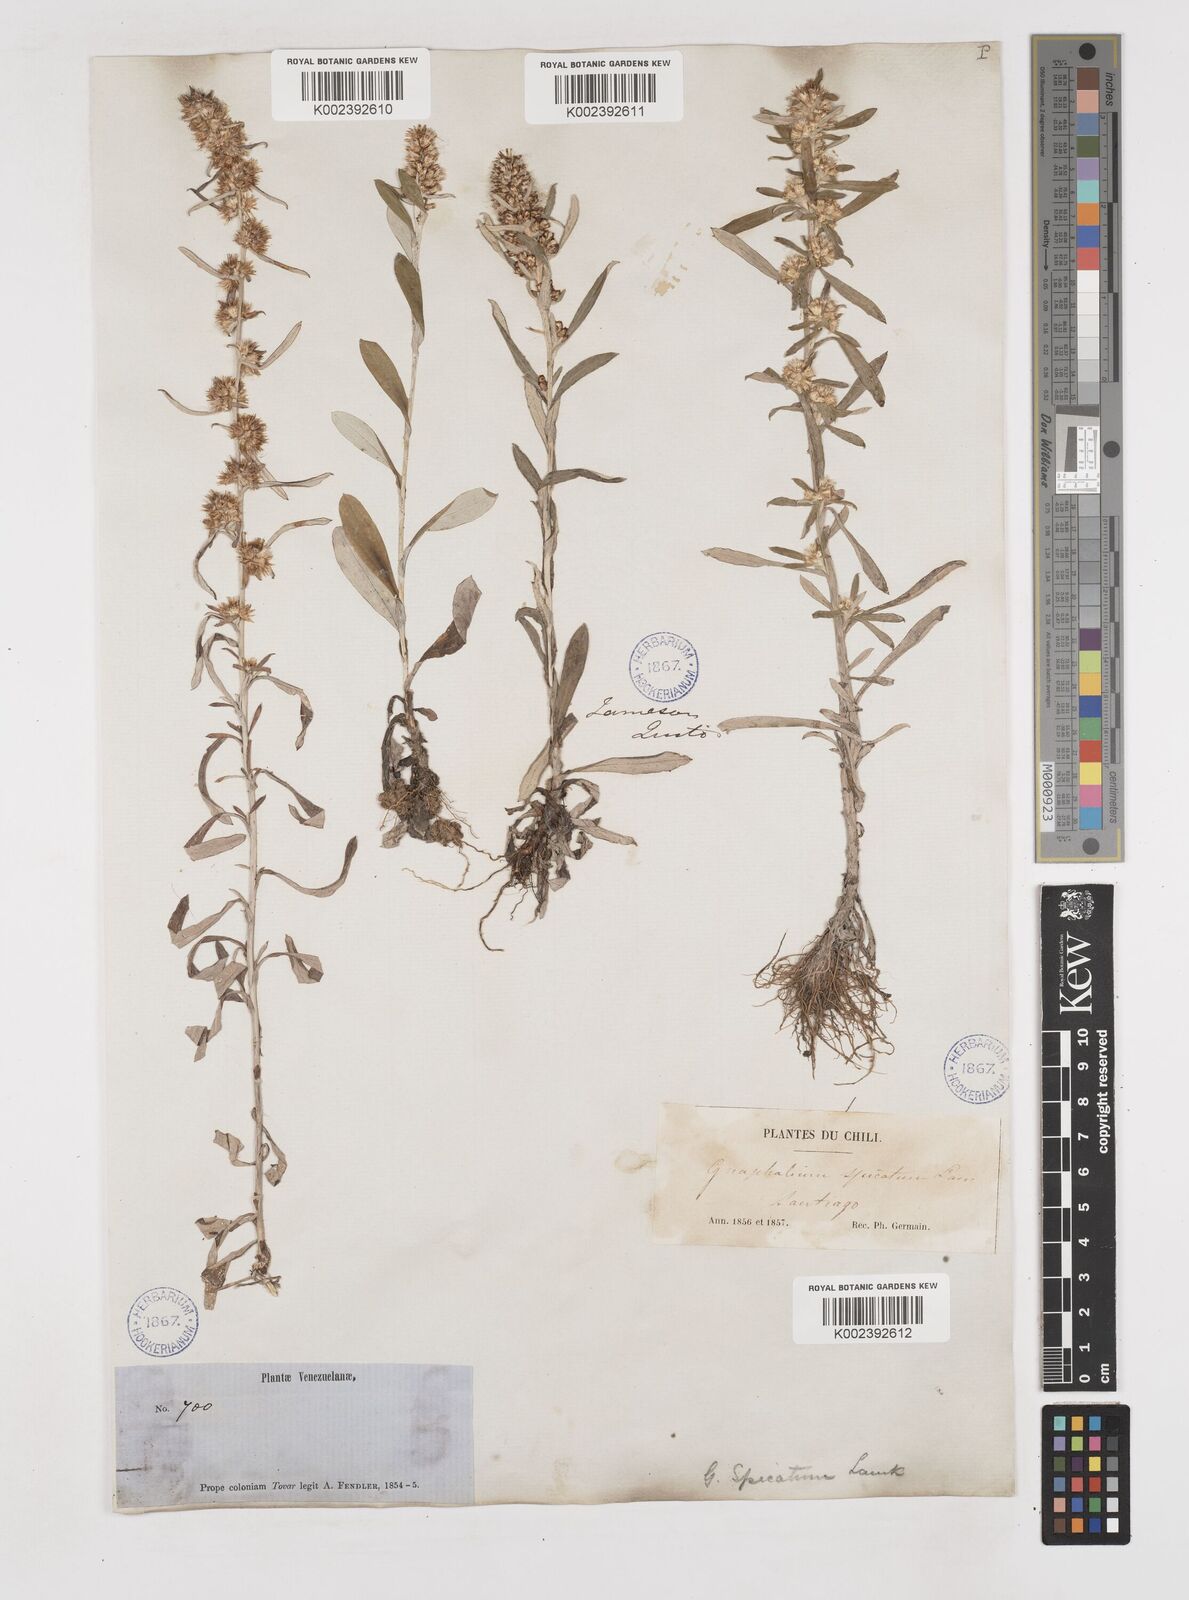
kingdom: Plantae
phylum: Tracheophyta
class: Magnoliopsida
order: Asterales
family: Asteraceae
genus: Gamochaeta
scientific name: Gamochaeta americana
